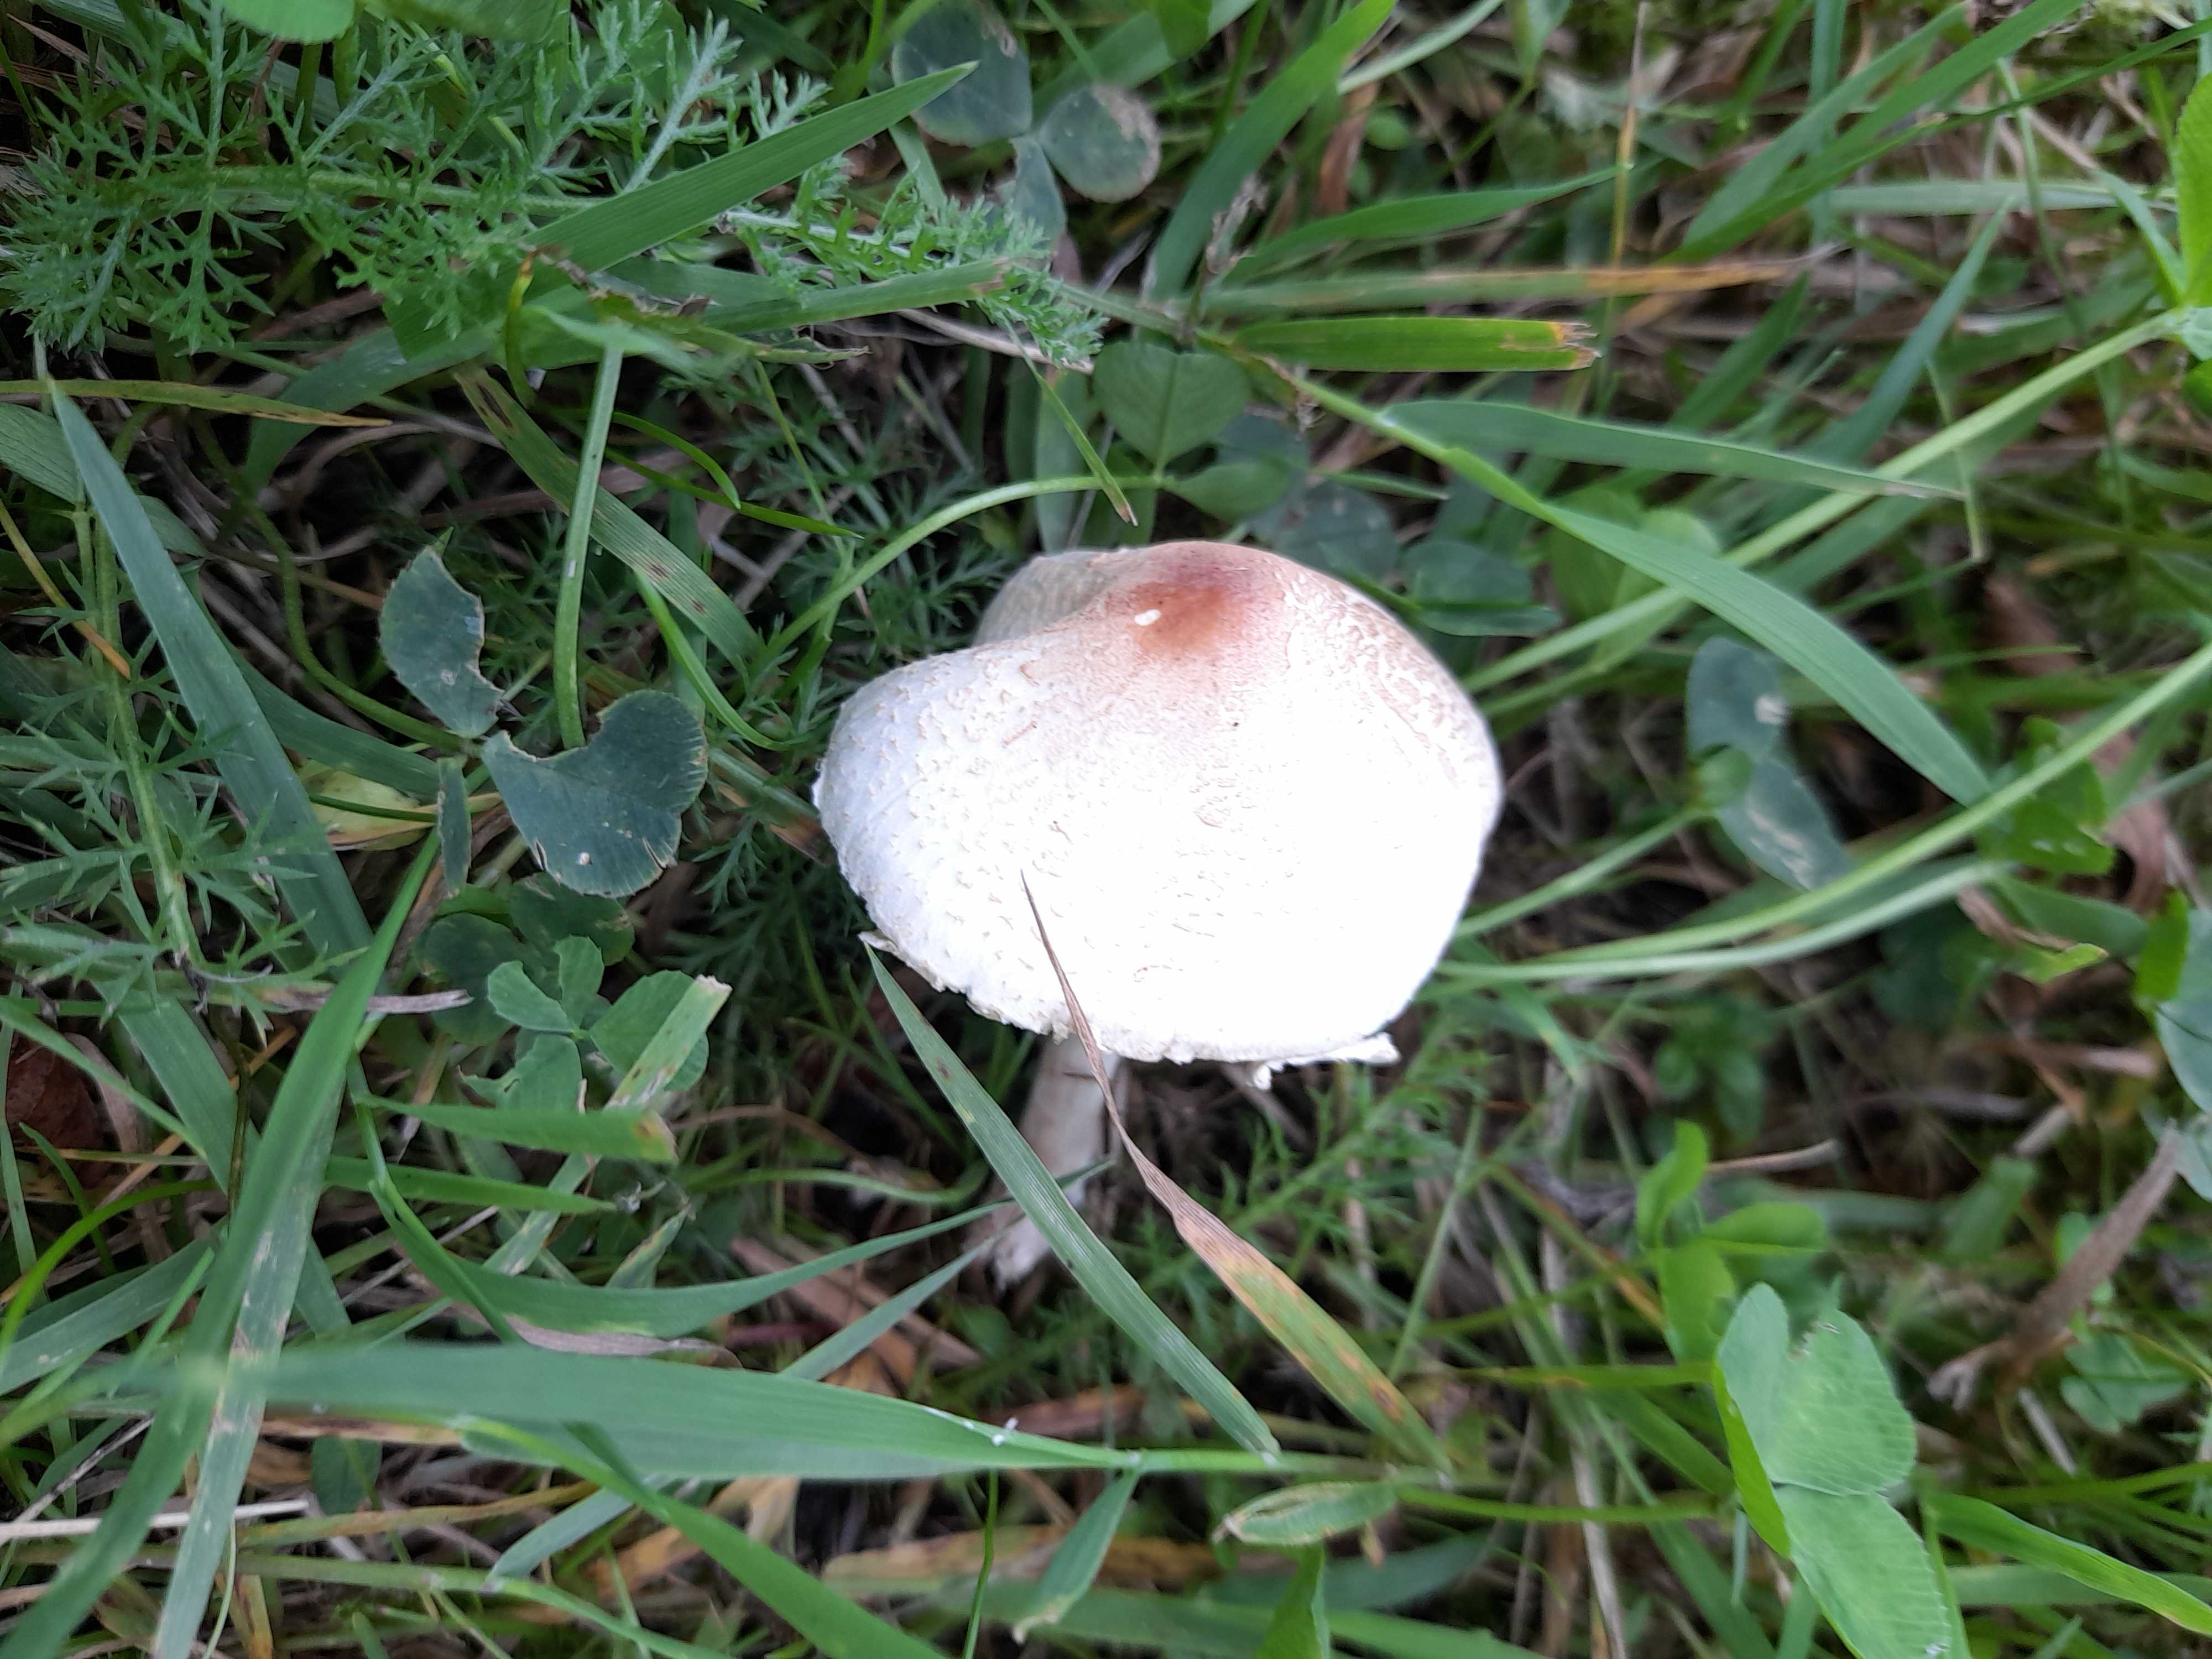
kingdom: Fungi
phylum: Basidiomycota
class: Agaricomycetes
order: Agaricales
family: Agaricaceae
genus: Lepiota
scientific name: Lepiota cristata
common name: stinkende parasolhat
